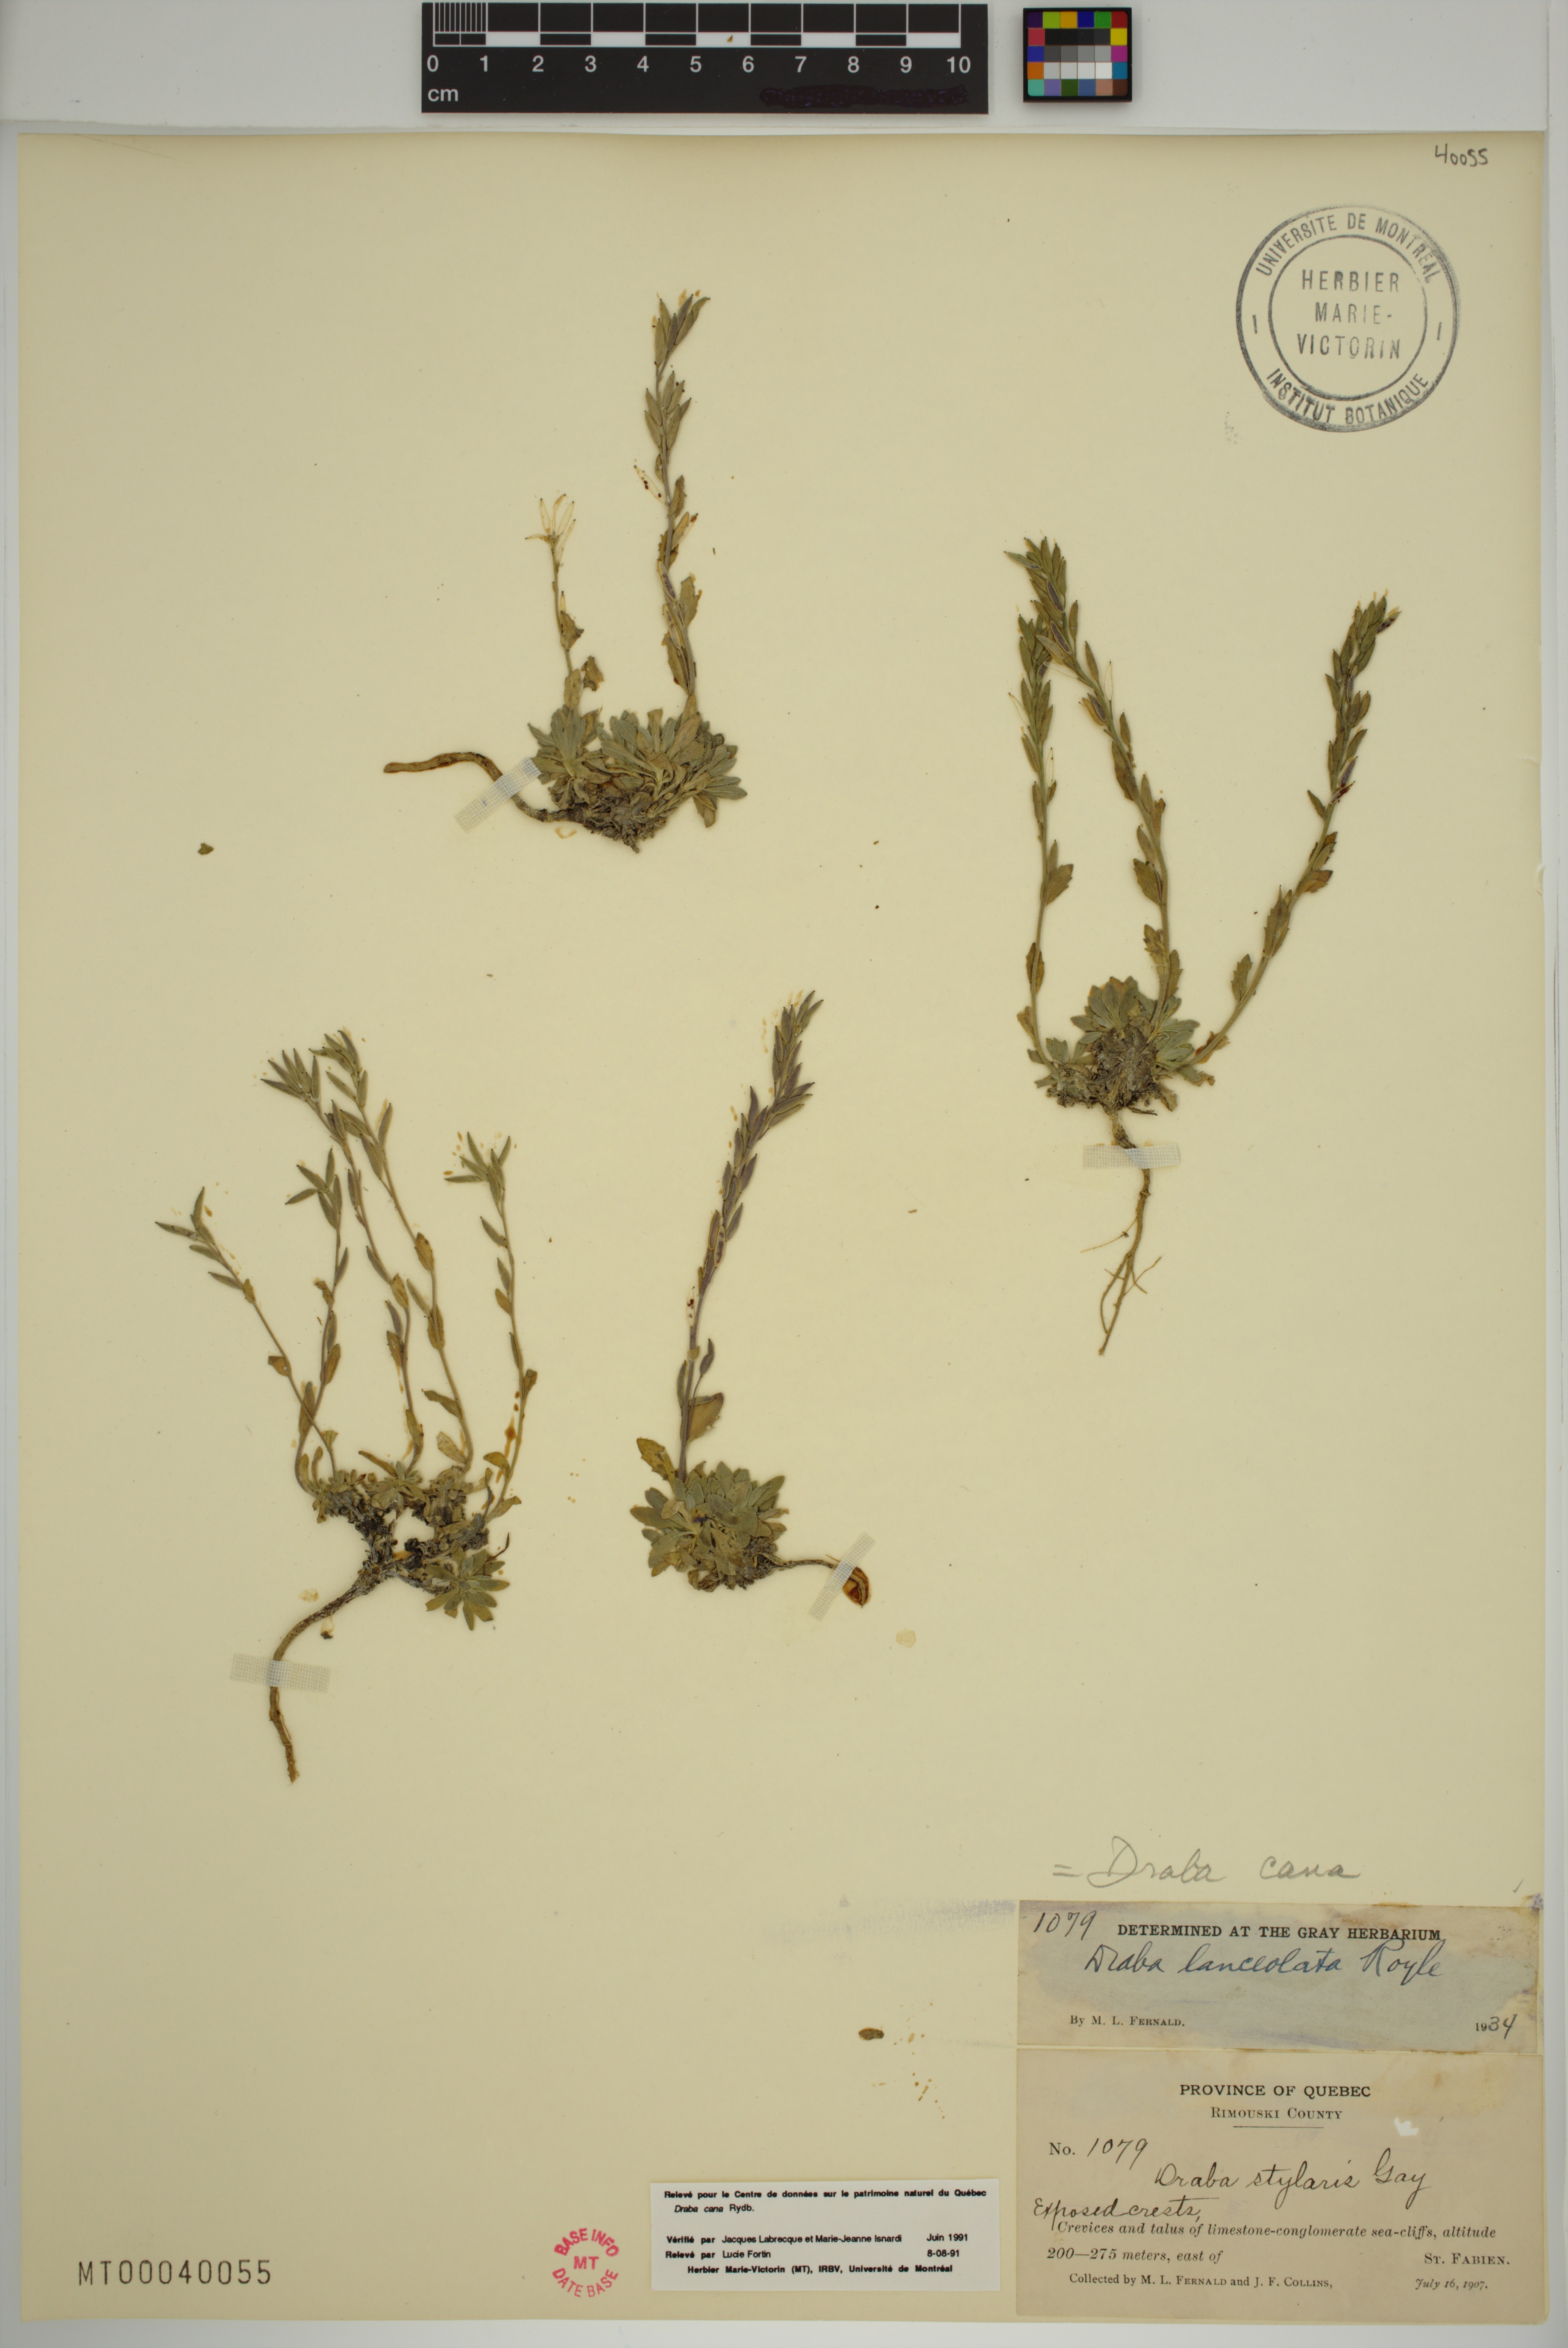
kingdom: Plantae
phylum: Tracheophyta
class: Magnoliopsida
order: Brassicales
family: Brassicaceae
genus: Draba
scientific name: Draba cana
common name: Hoary draba
